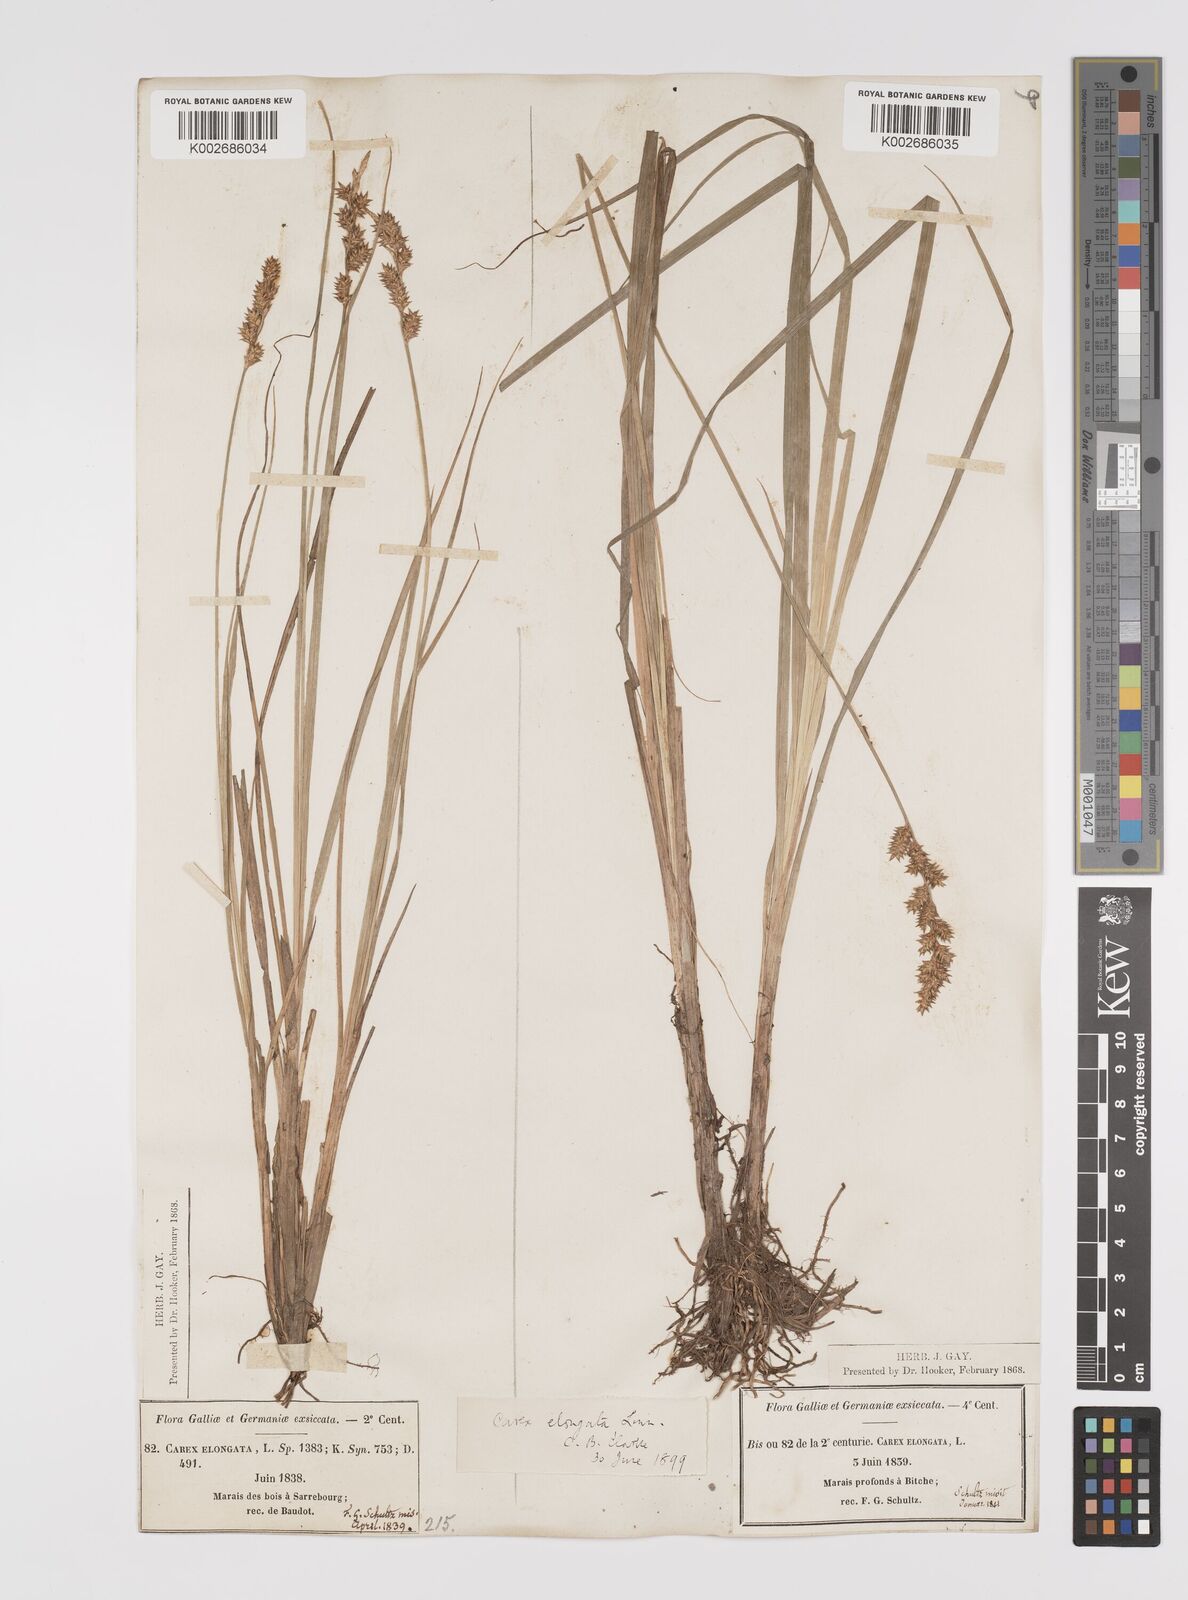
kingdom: Plantae
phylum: Tracheophyta
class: Liliopsida
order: Poales
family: Cyperaceae
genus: Carex
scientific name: Carex elongata
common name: Elongated sedge
